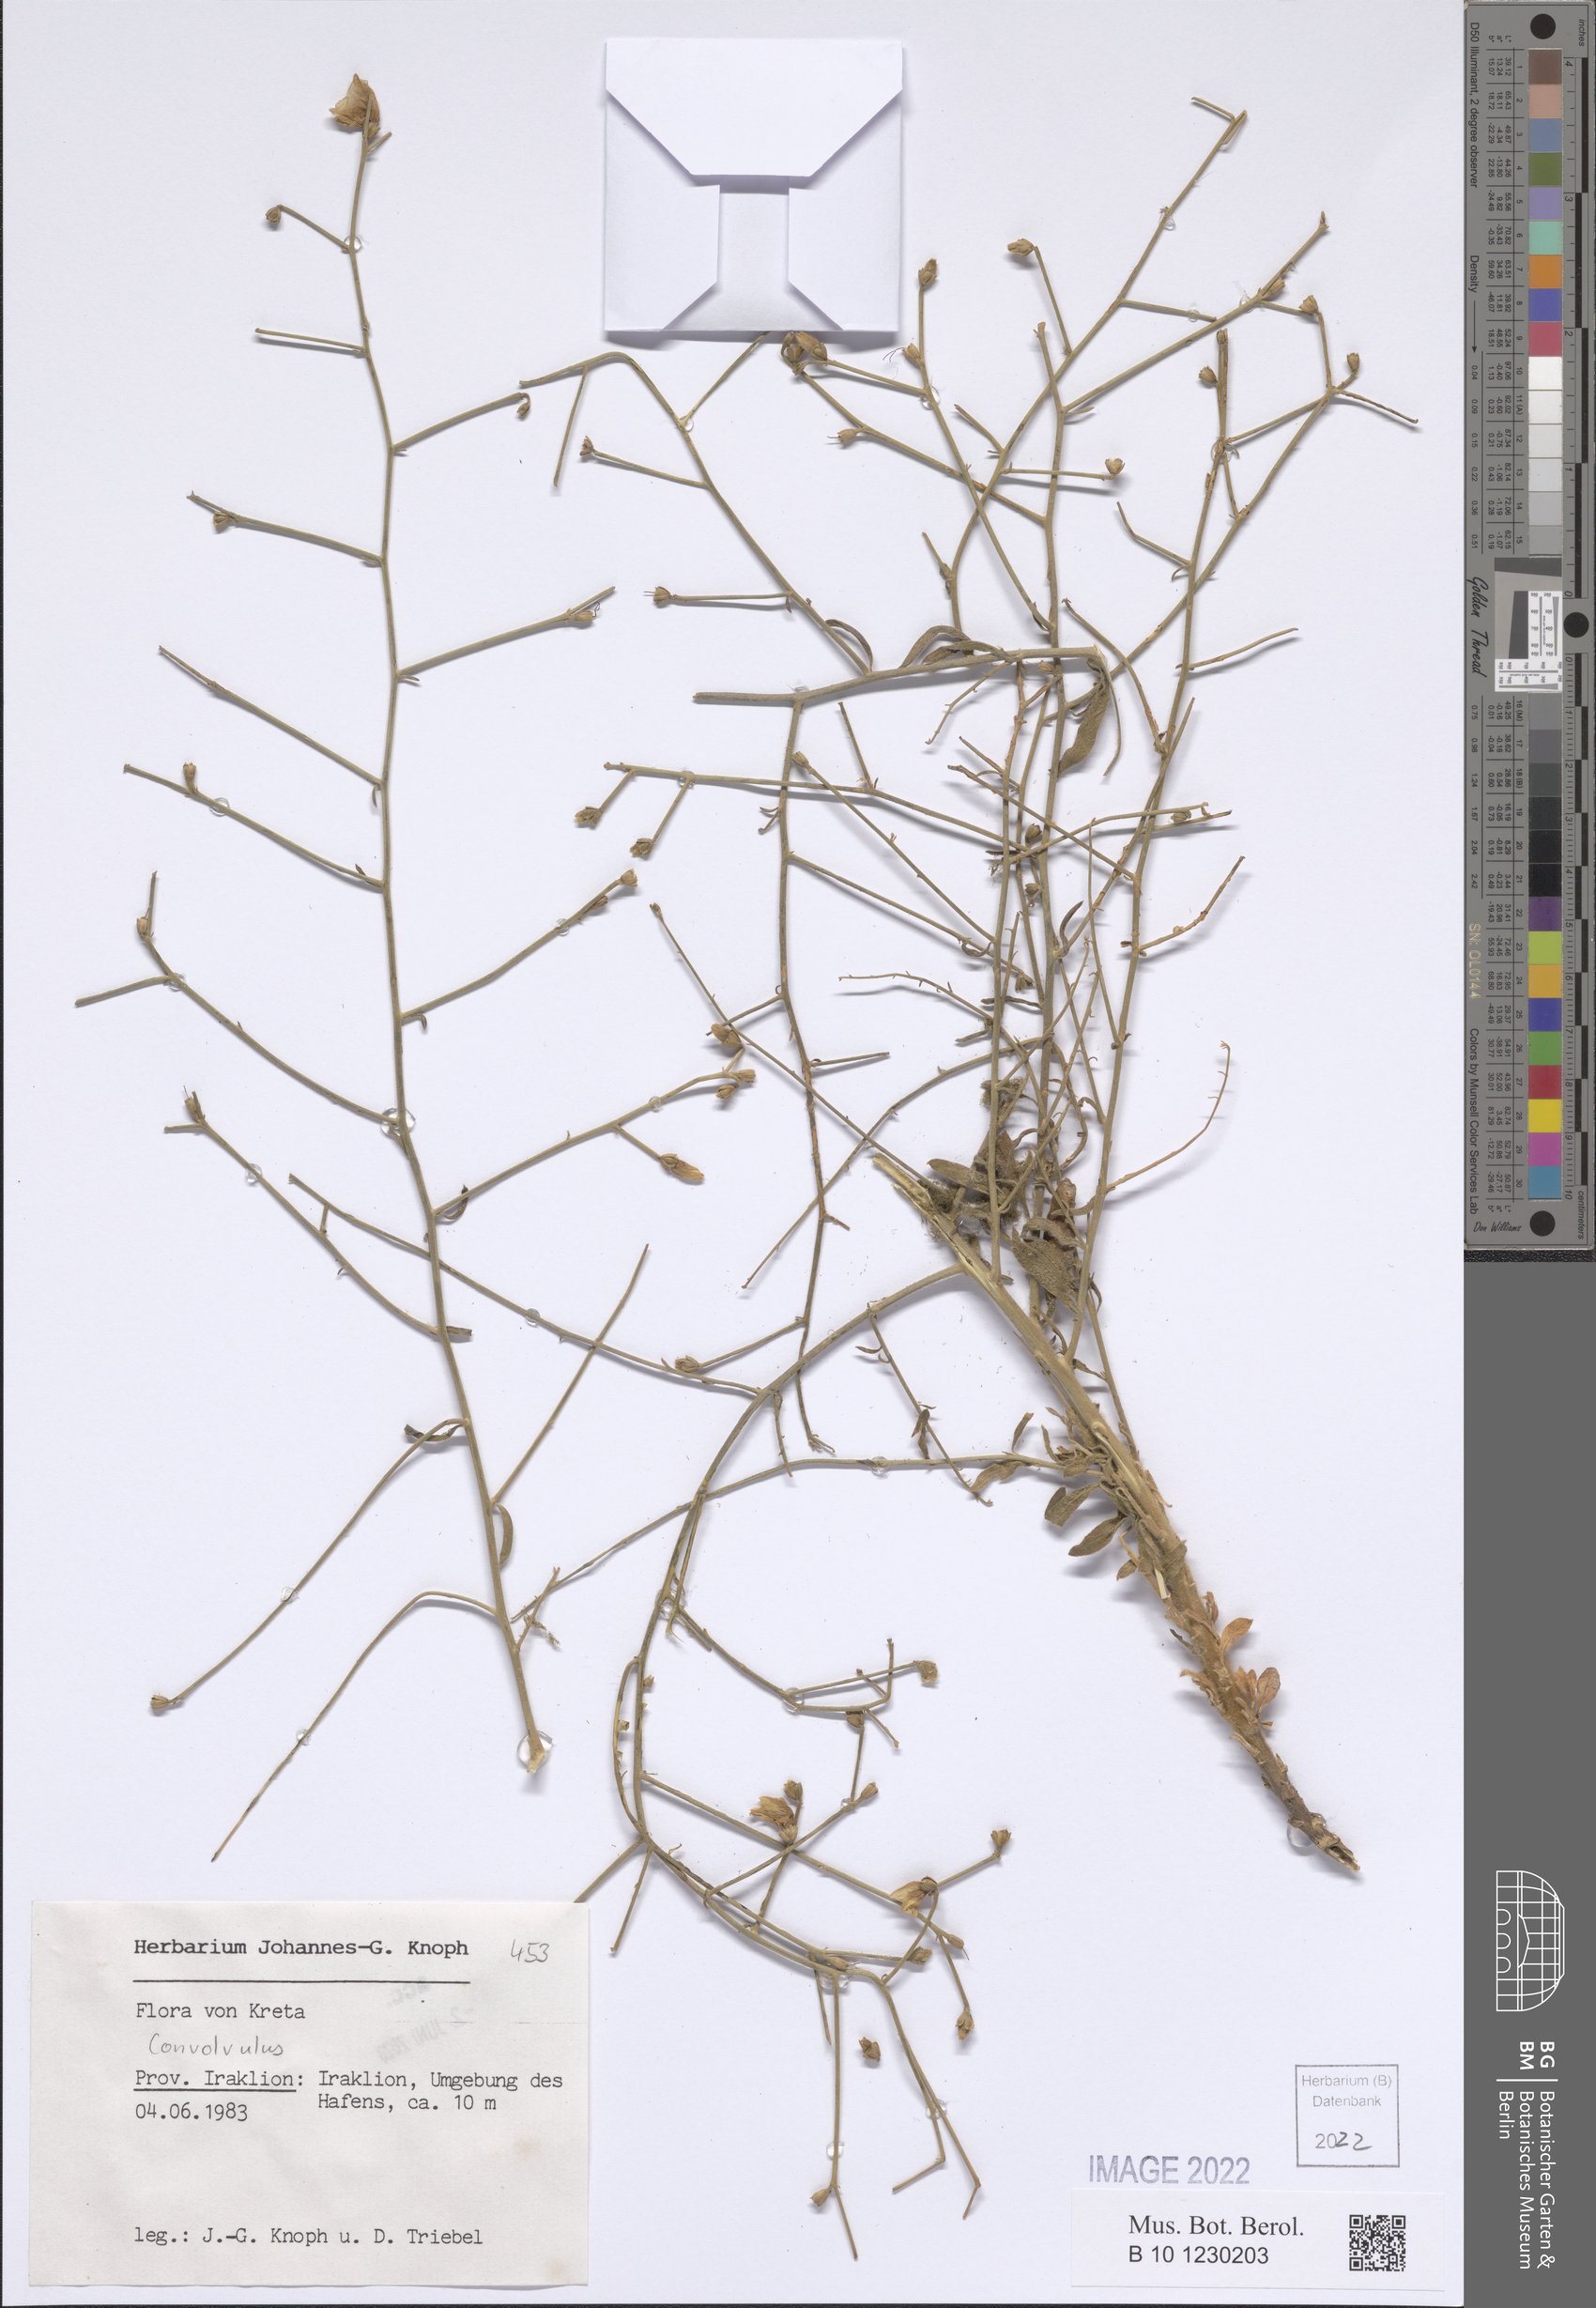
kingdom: Plantae
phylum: Tracheophyta
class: Magnoliopsida
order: Solanales
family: Convolvulaceae
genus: Convolvulus
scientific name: Convolvulus dorycnium
